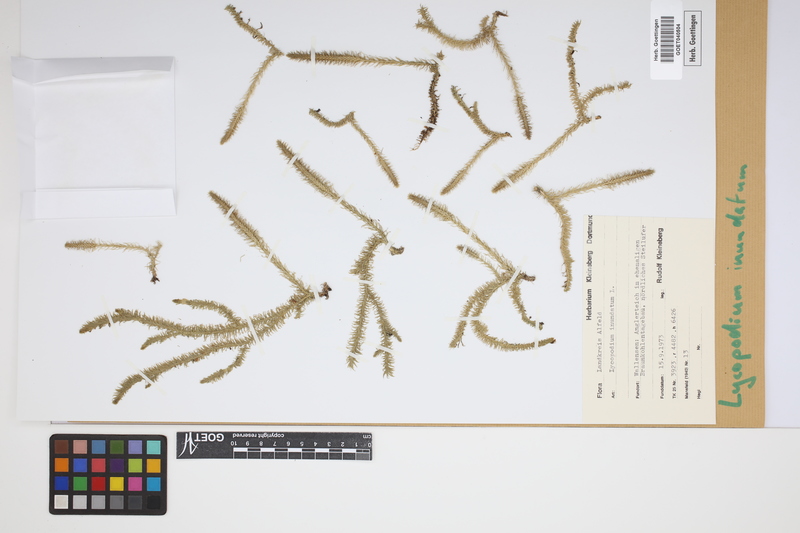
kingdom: Plantae
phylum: Tracheophyta
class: Lycopodiopsida
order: Lycopodiales
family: Lycopodiaceae
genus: Lycopodiella
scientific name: Lycopodiella inundata
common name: Marsh clubmoss
